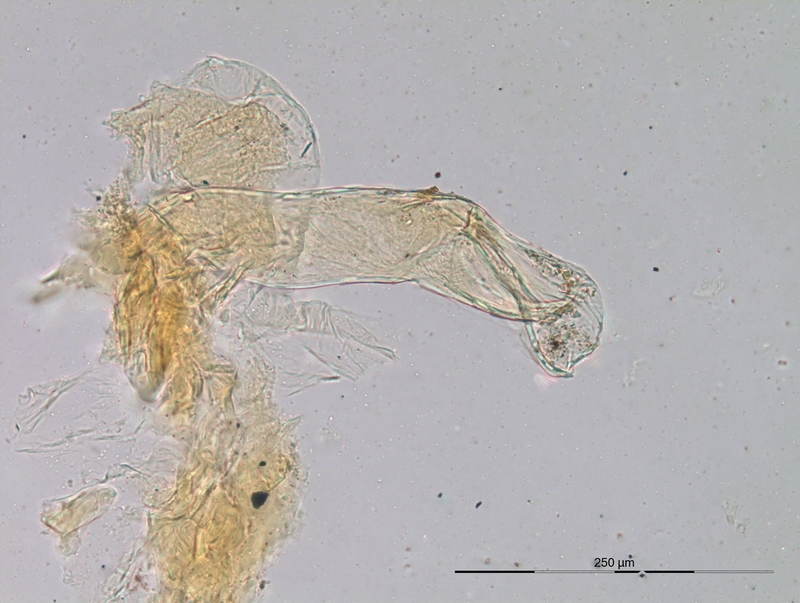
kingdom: Animalia
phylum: Arthropoda
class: Diplopoda
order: Julida
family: Blaniulidae
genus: Nopoiulus
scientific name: Nopoiulus kochii
